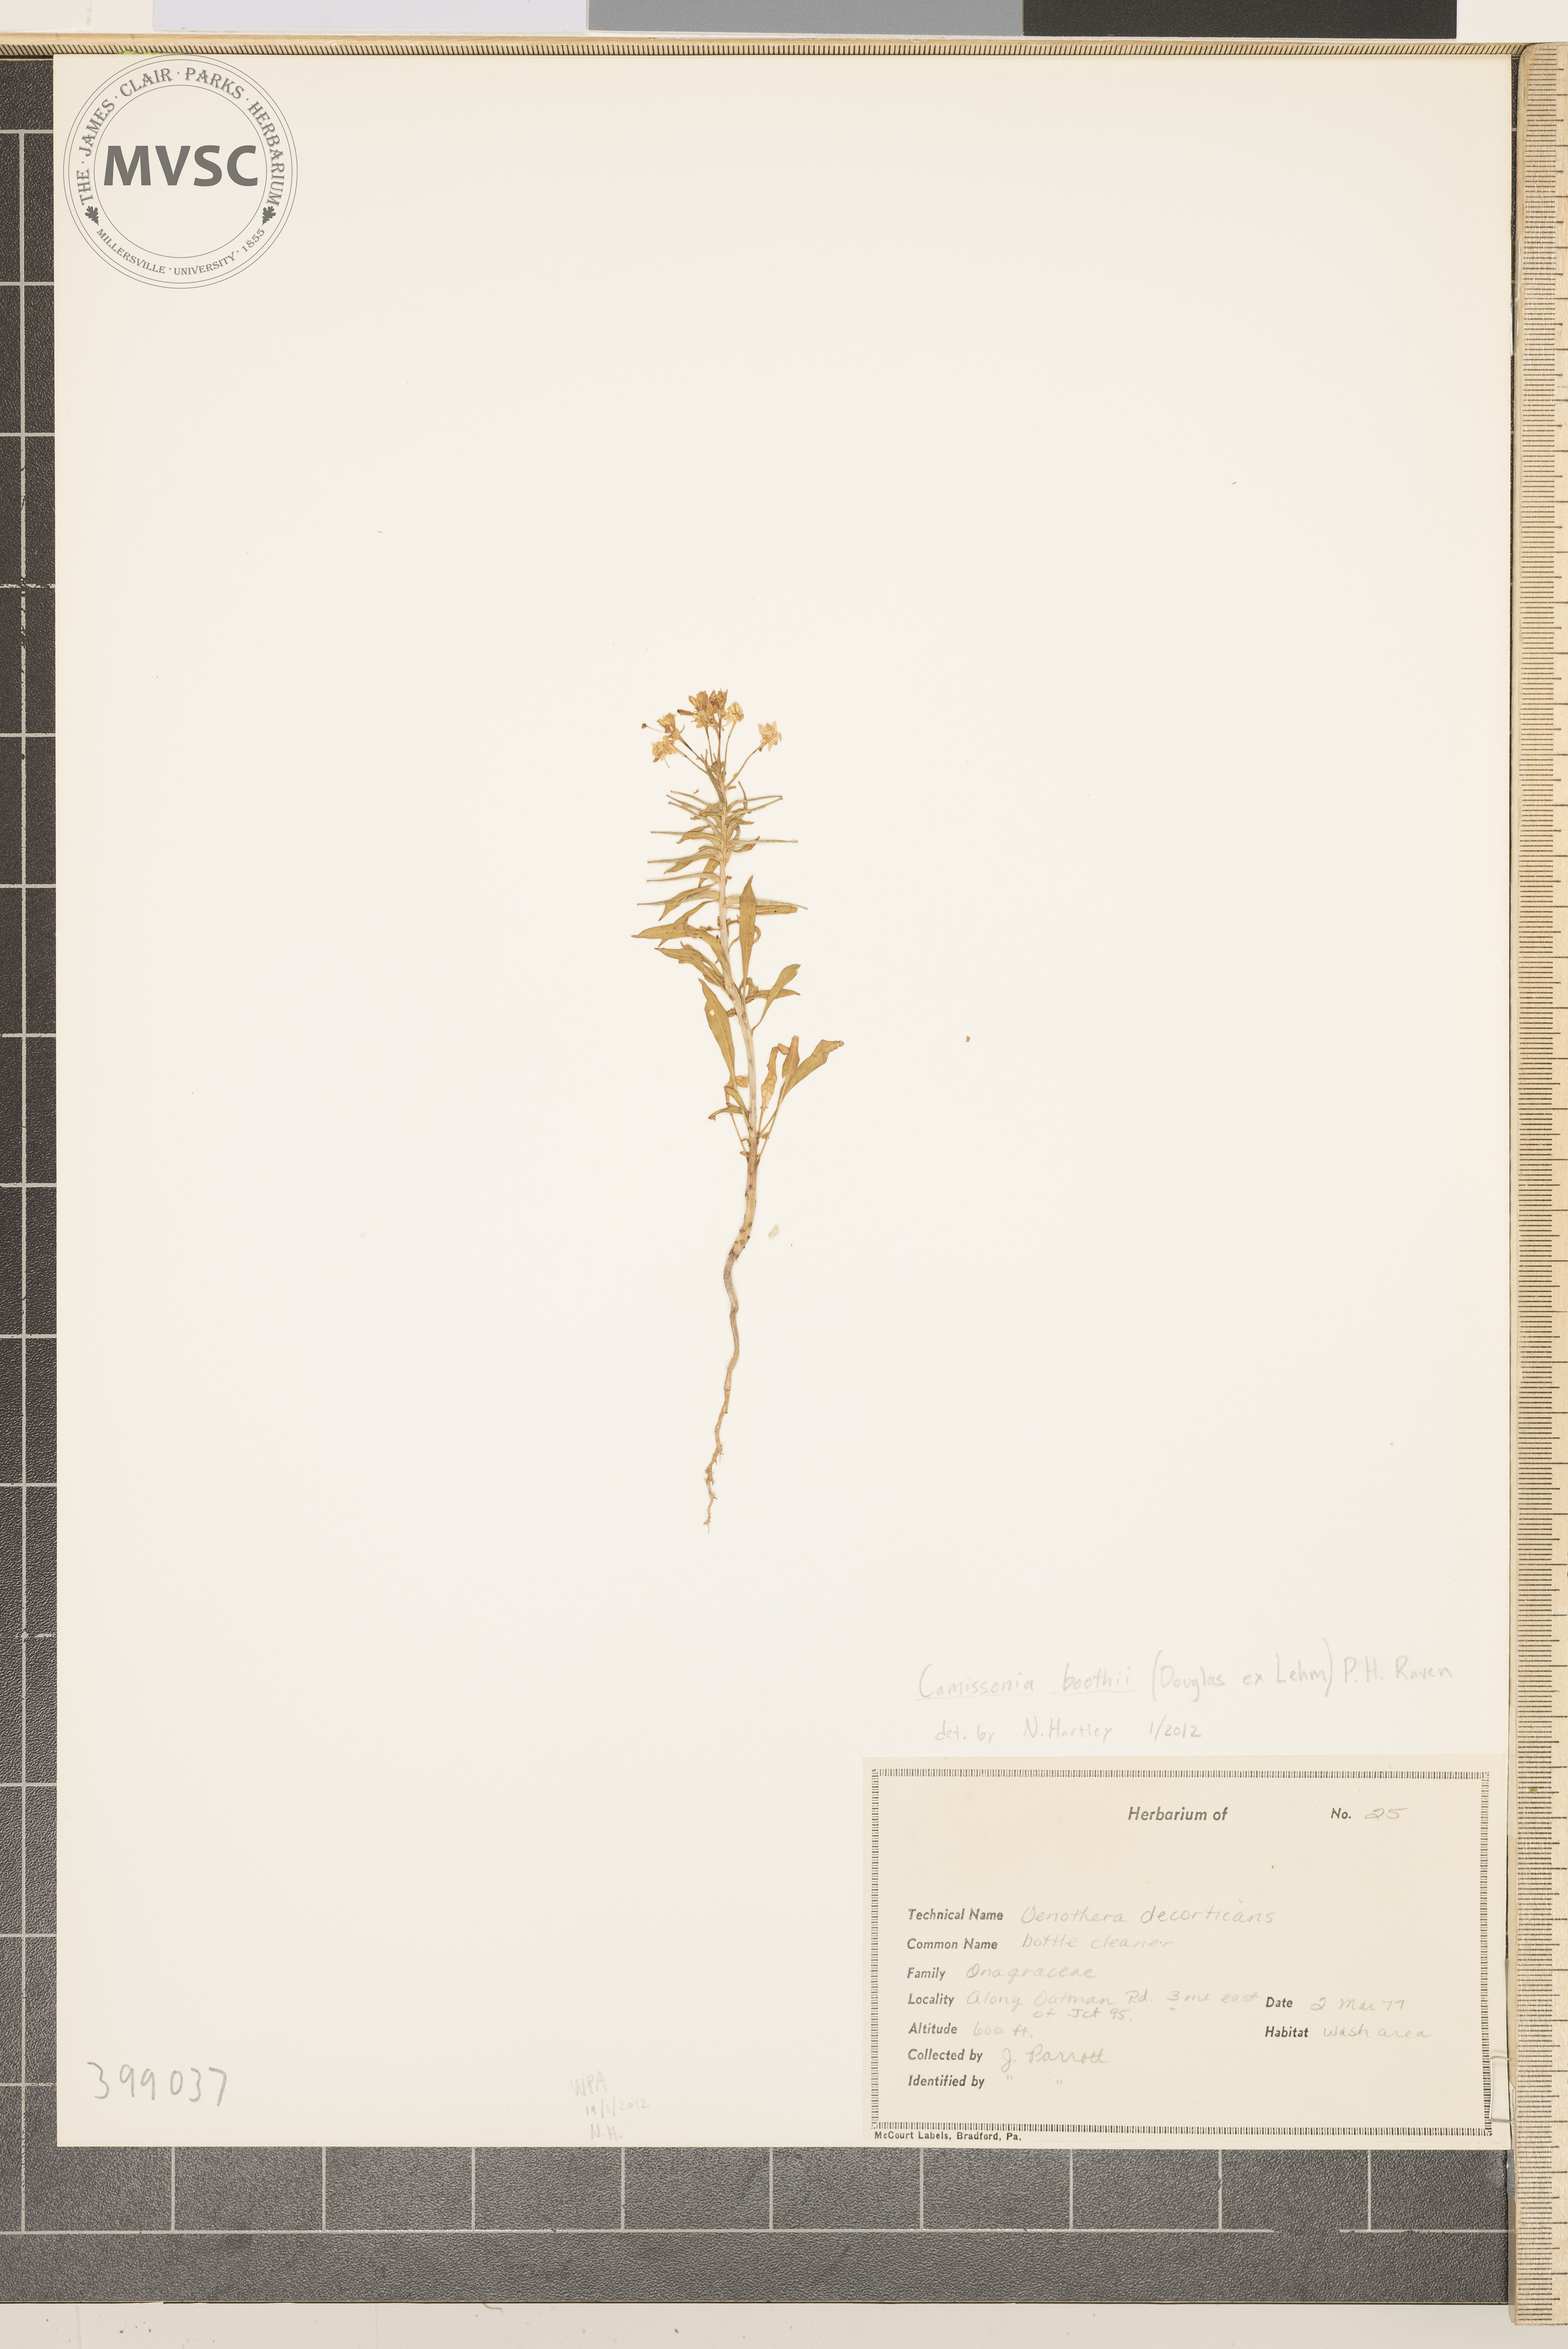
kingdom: Plantae
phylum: Tracheophyta
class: Magnoliopsida
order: Myrtales
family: Onagraceae
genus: Eremothera
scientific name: Eremothera boothii
